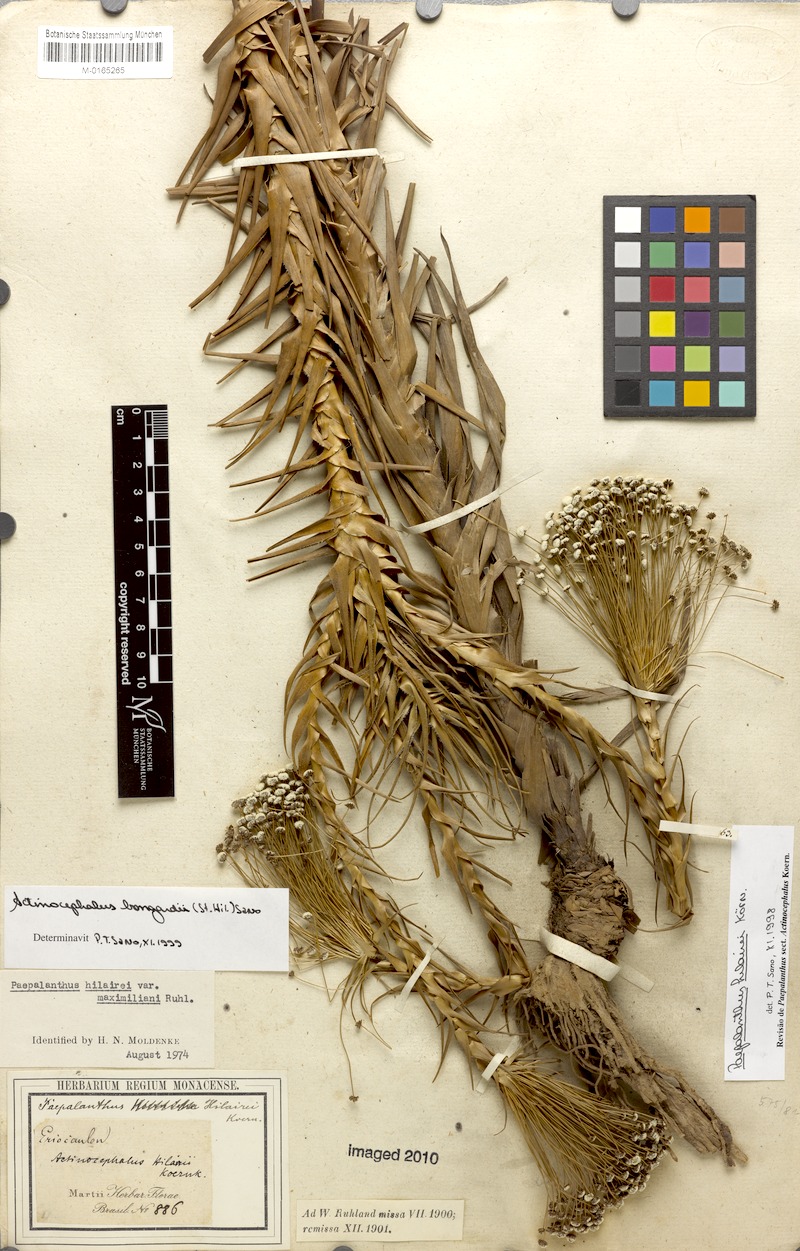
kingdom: Plantae
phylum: Tracheophyta
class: Liliopsida
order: Poales
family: Eriocaulaceae
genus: Paepalanthus
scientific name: Paepalanthus hilairei
